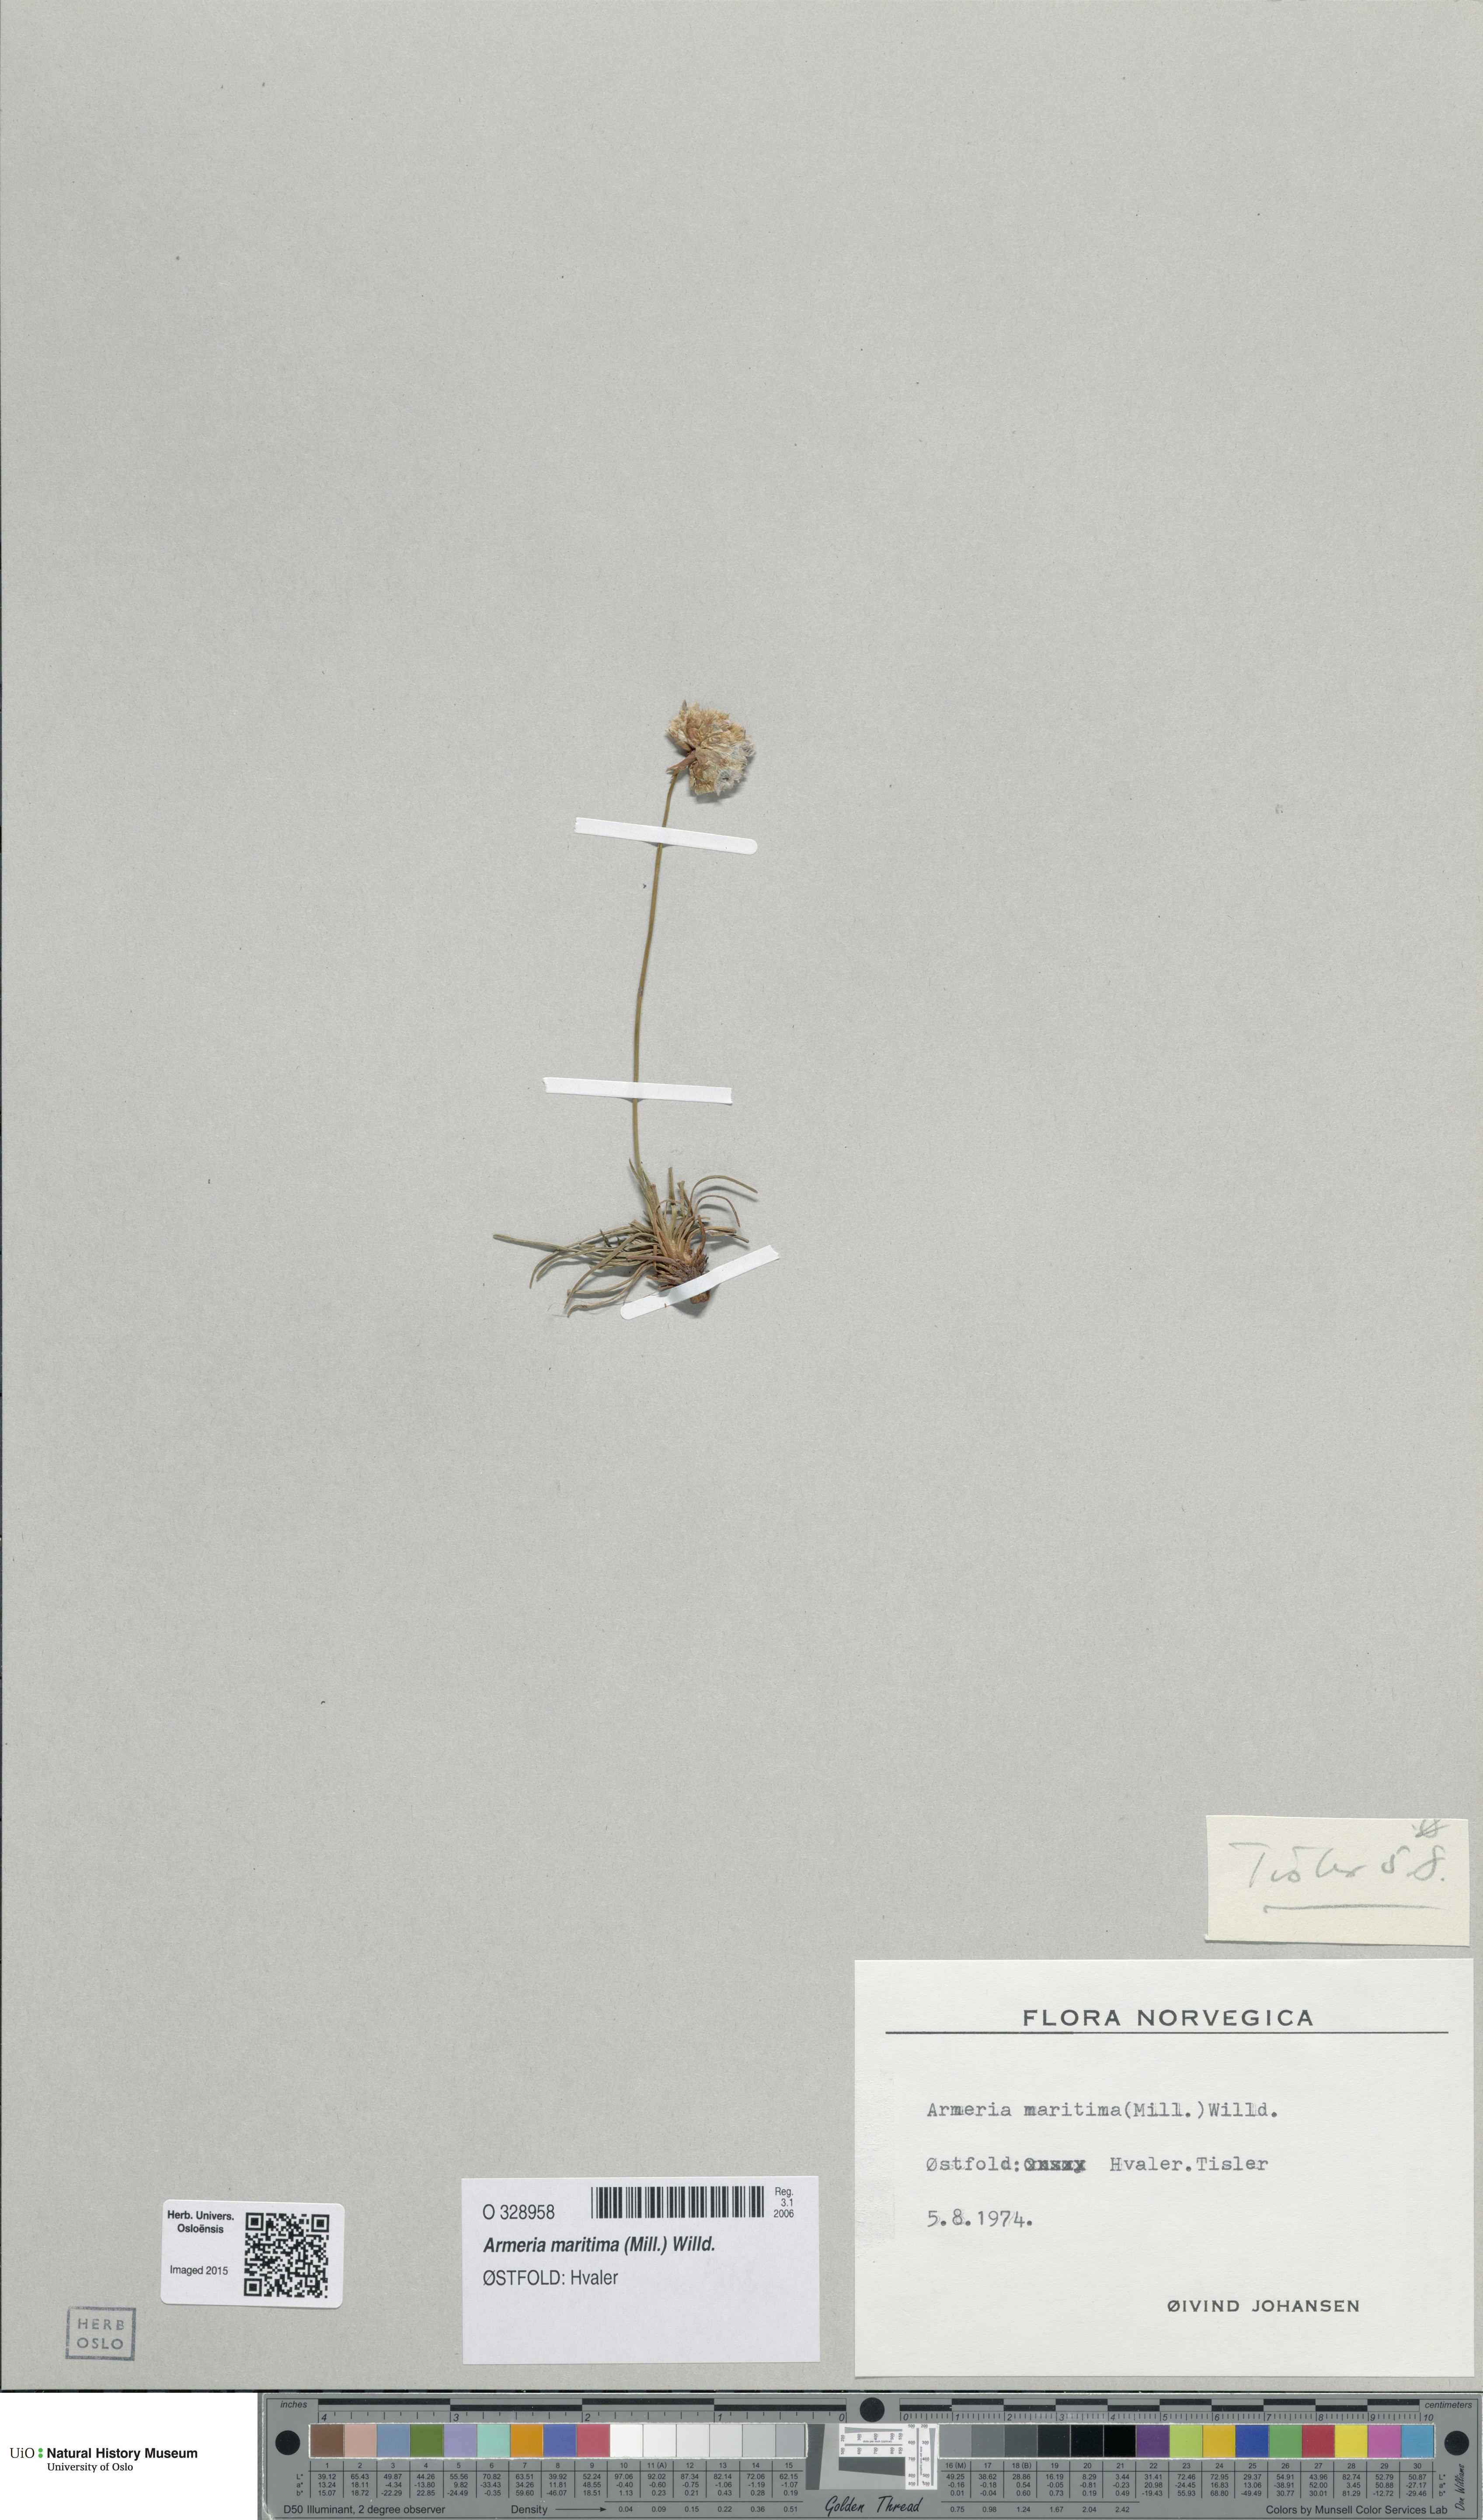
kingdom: Plantae
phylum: Tracheophyta
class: Magnoliopsida
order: Caryophyllales
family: Plumbaginaceae
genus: Armeria
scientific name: Armeria maritima
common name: Thrift
